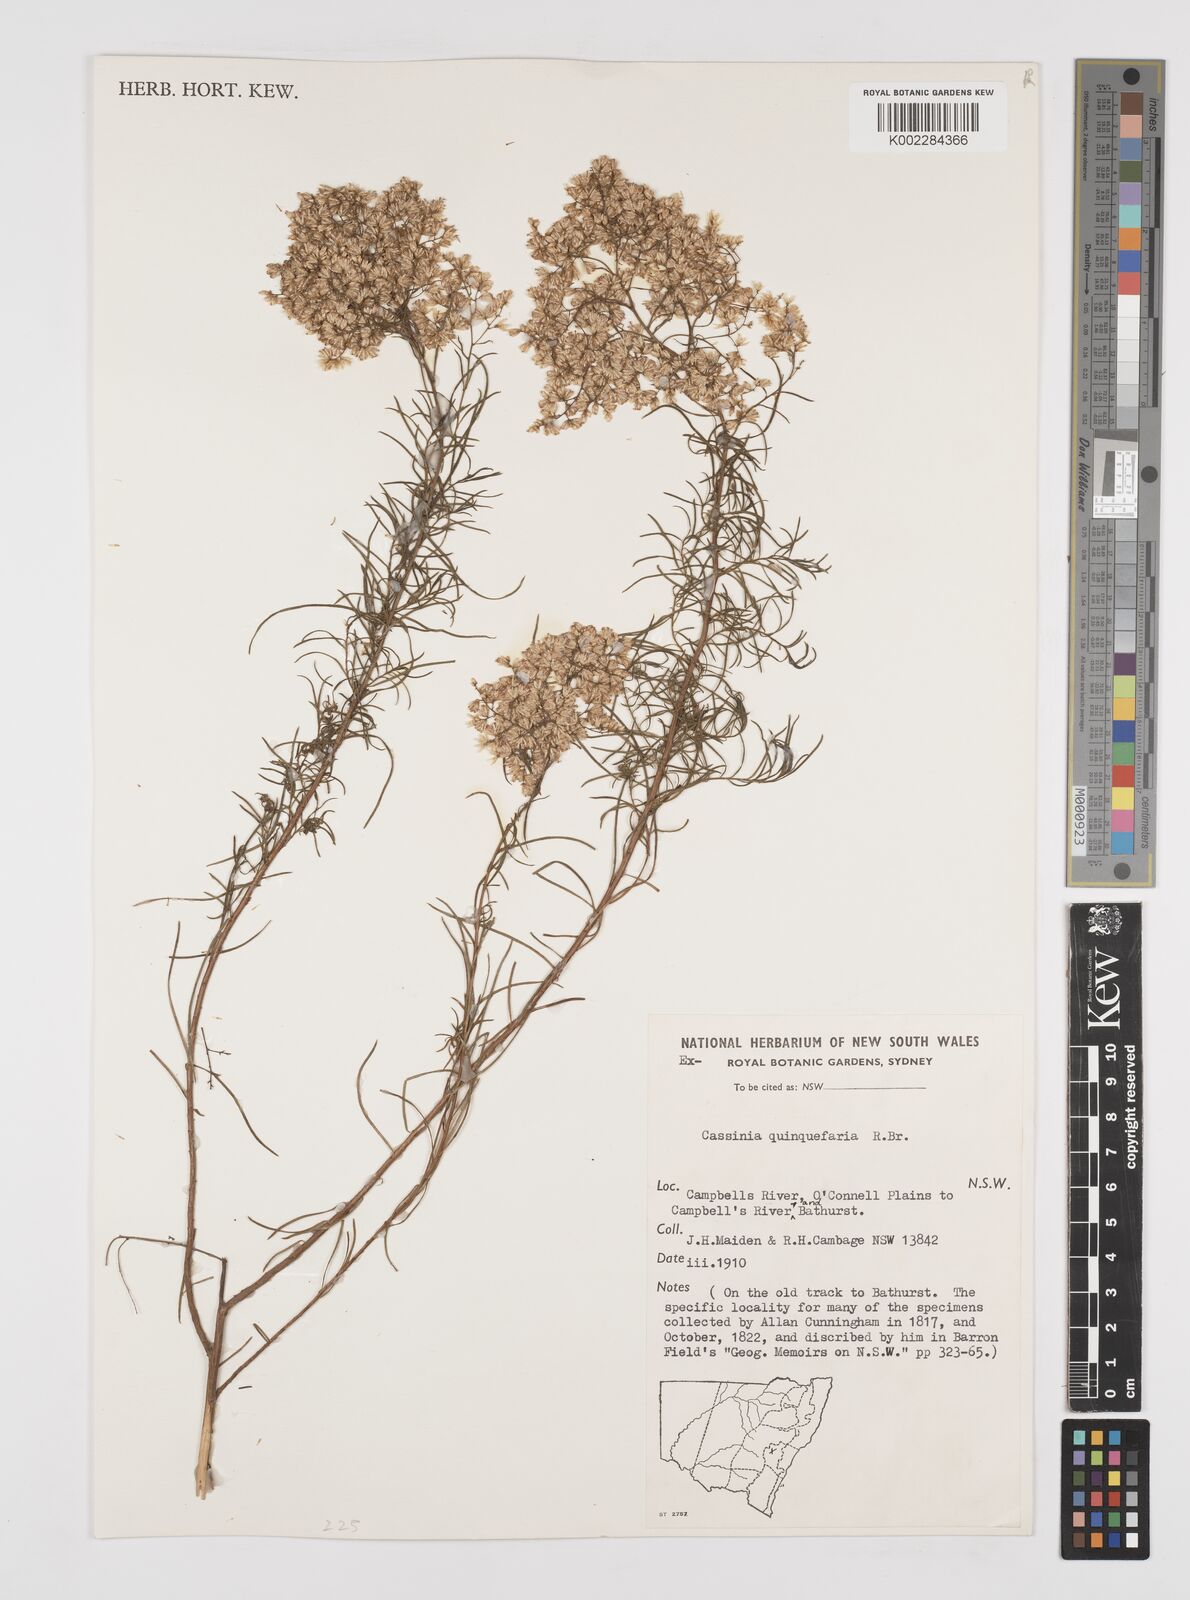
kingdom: Plantae
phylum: Tracheophyta
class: Magnoliopsida
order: Asterales
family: Asteraceae
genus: Cassinia
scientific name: Cassinia quinquefaria
